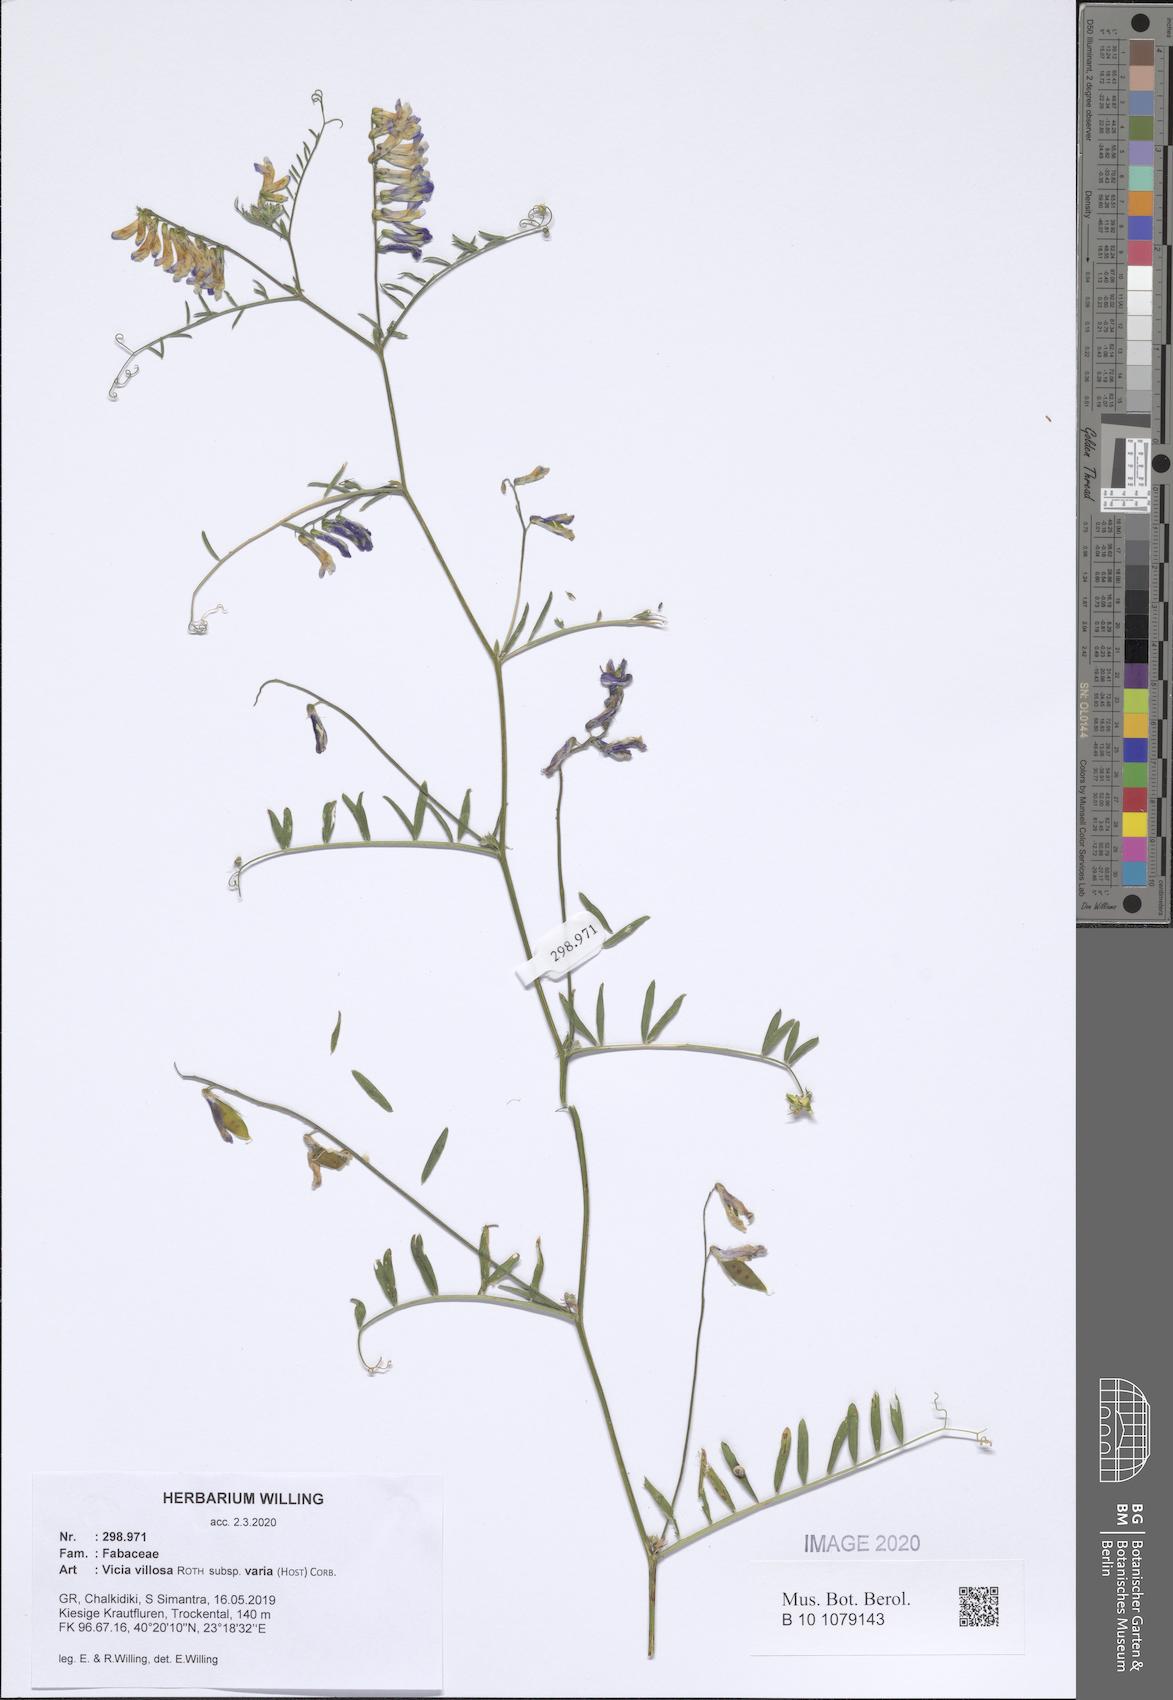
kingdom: Plantae
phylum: Tracheophyta
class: Magnoliopsida
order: Fabales
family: Fabaceae
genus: Vicia
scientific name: Vicia villosa
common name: Fodder vetch
